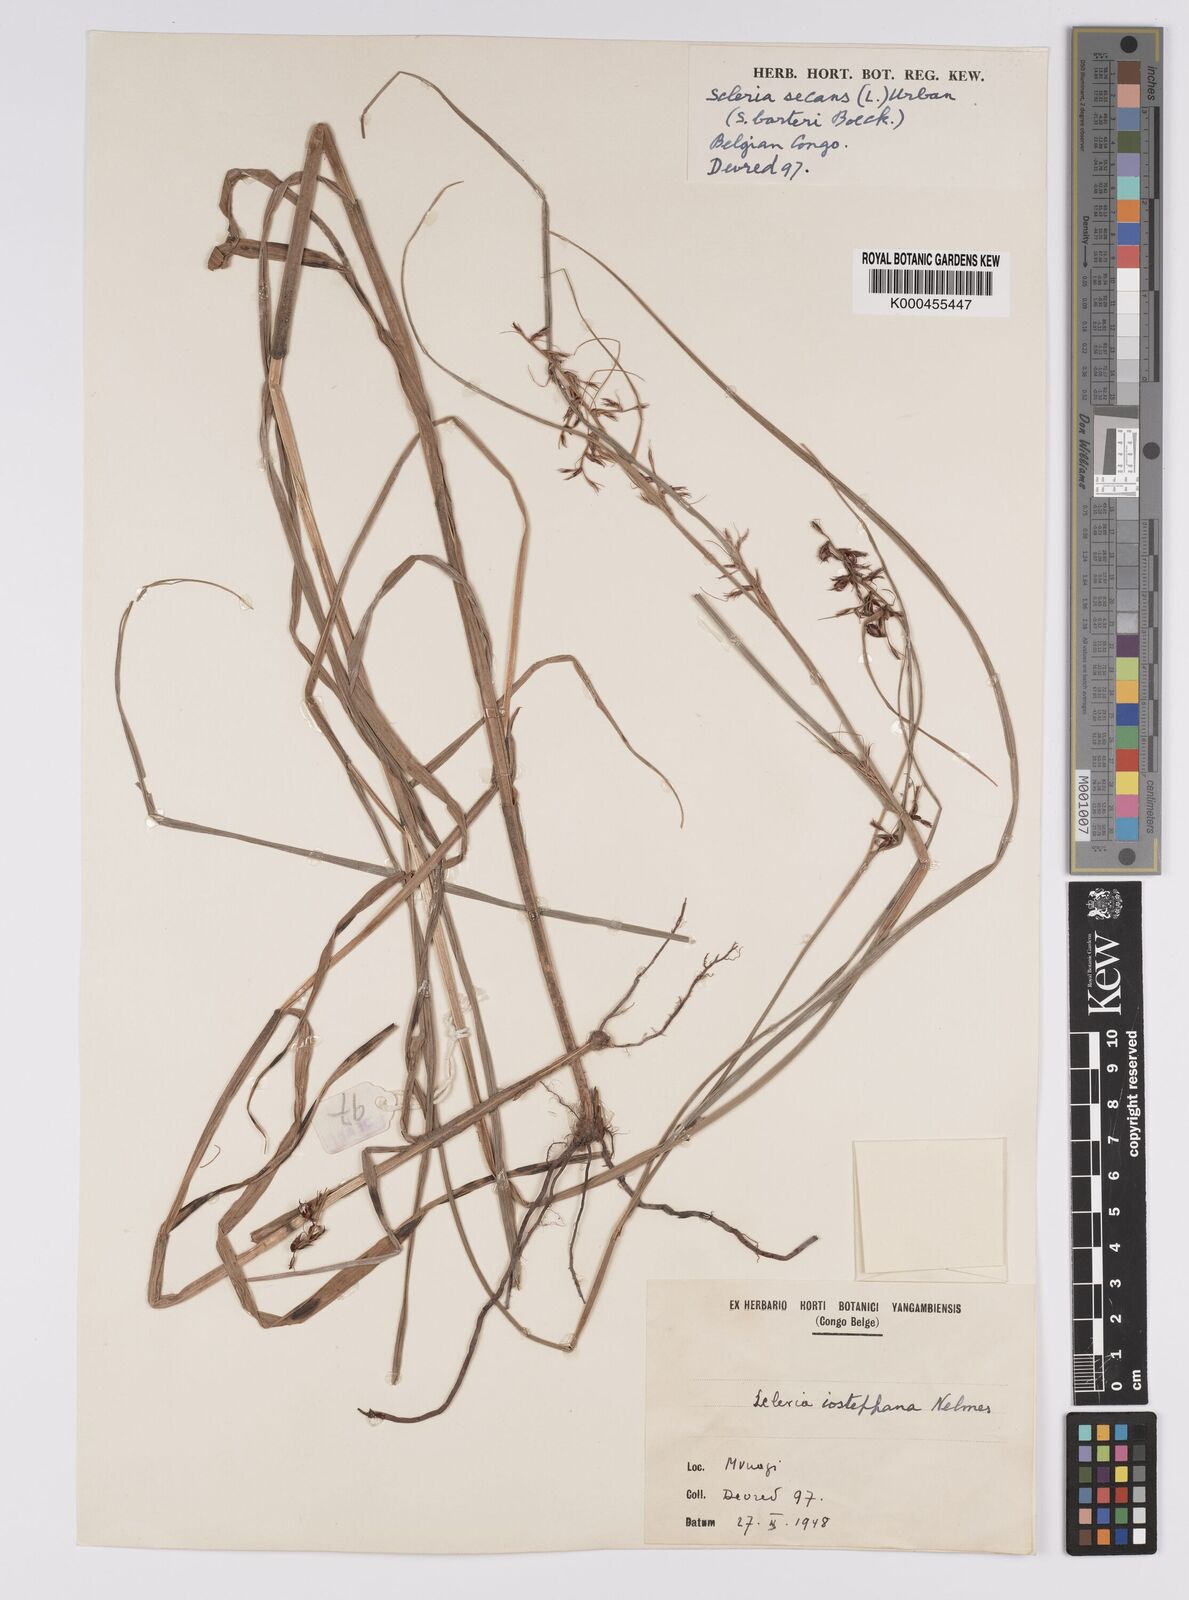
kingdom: Plantae
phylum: Tracheophyta
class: Liliopsida
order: Poales
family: Cyperaceae
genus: Scleria
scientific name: Scleria iostephana
